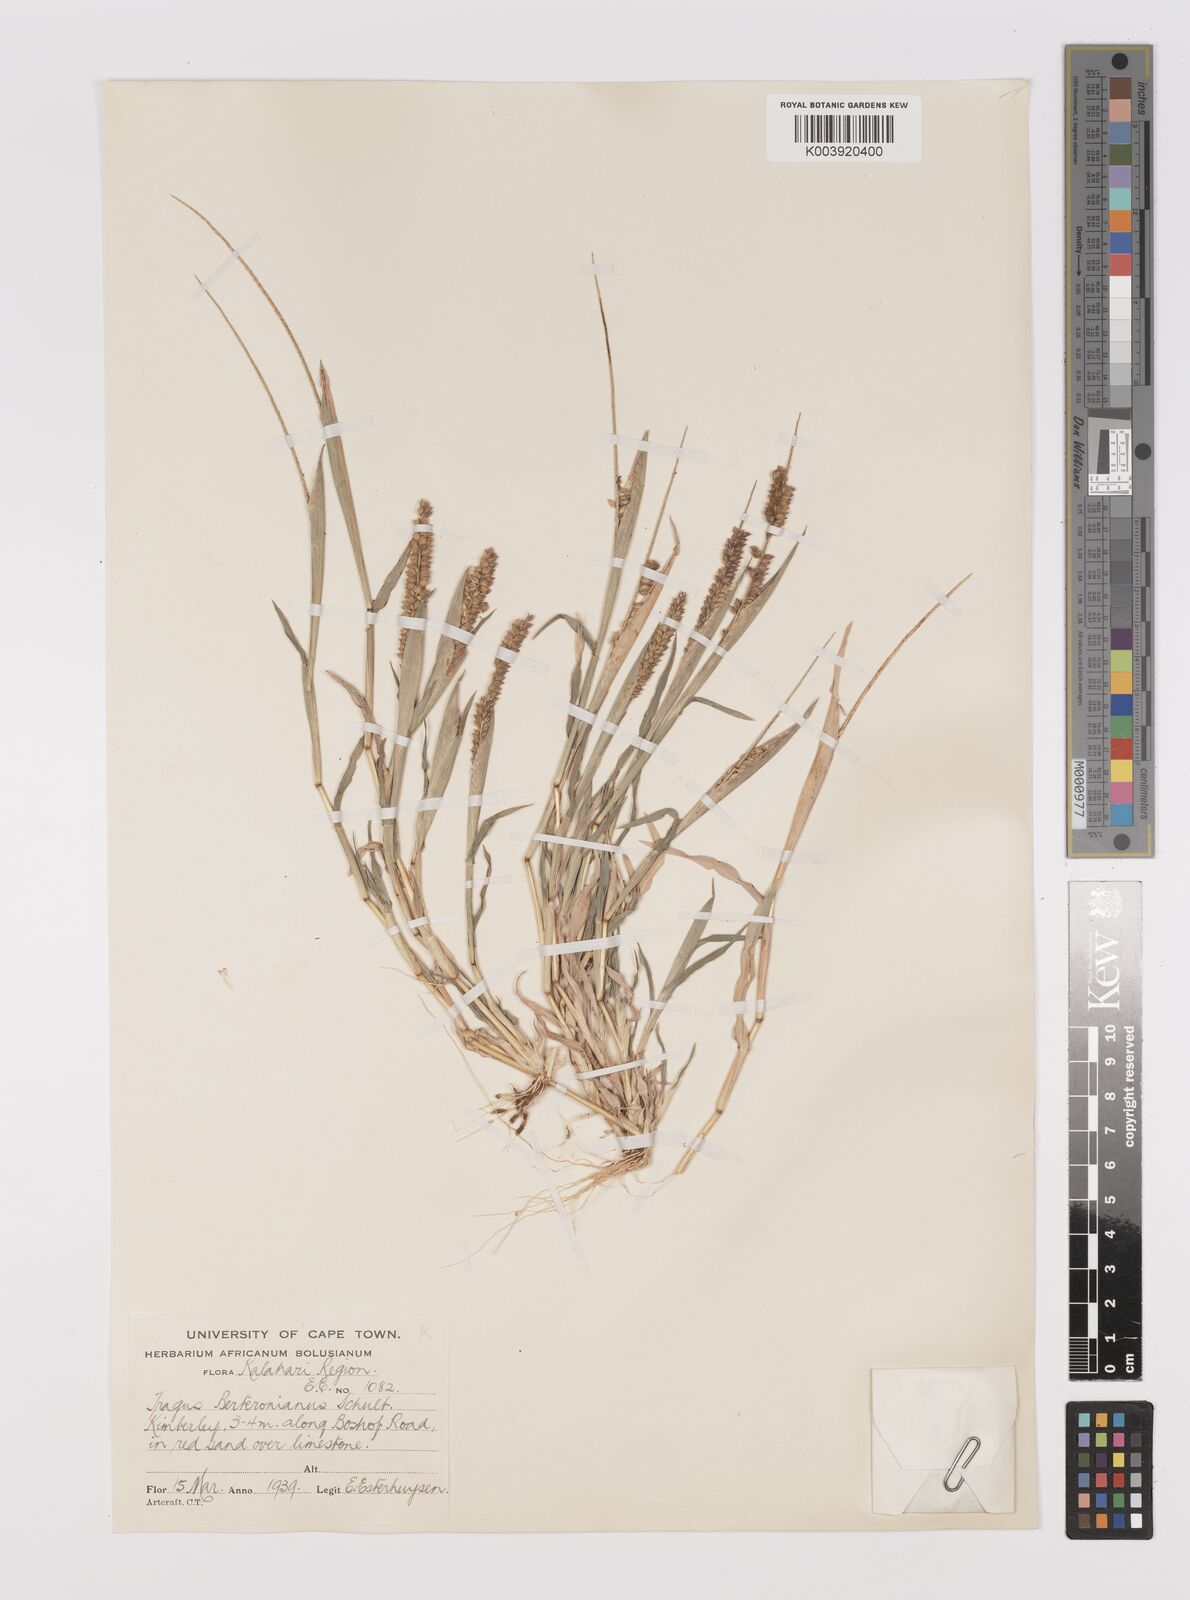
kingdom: Plantae
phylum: Tracheophyta
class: Liliopsida
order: Poales
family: Poaceae
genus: Tragus
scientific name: Tragus berteronianus
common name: African bur-grass
